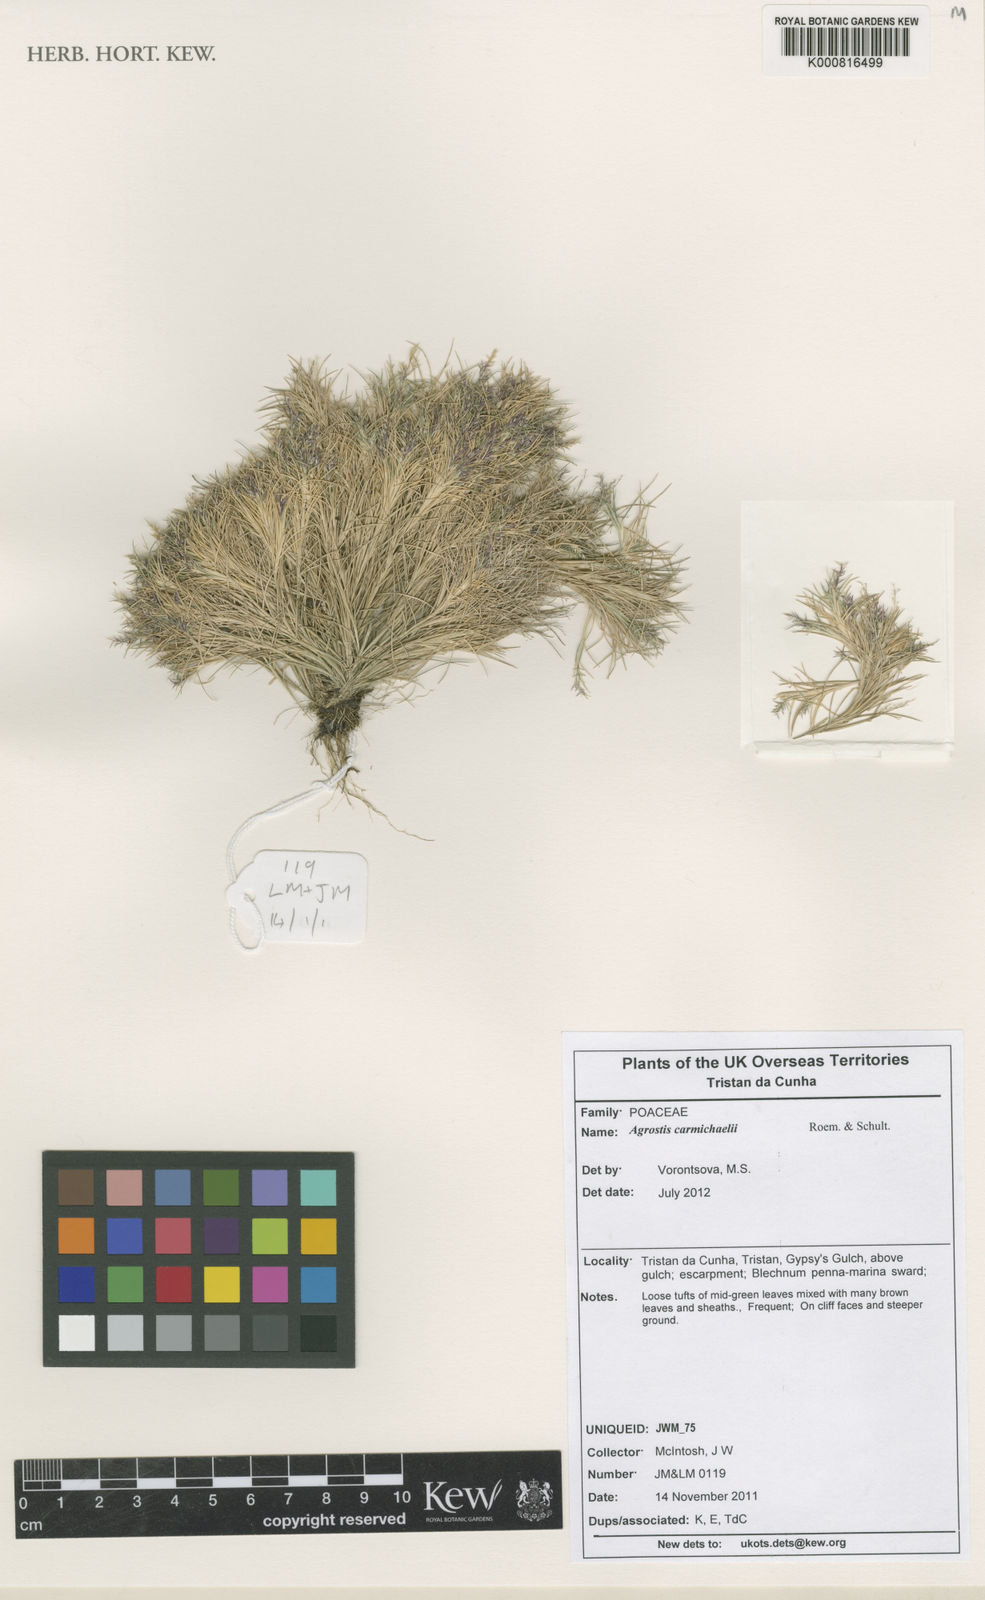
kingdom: Plantae
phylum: Tracheophyta
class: Liliopsida
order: Poales
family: Poaceae
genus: Agrostis
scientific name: Agrostis carmichaelii
